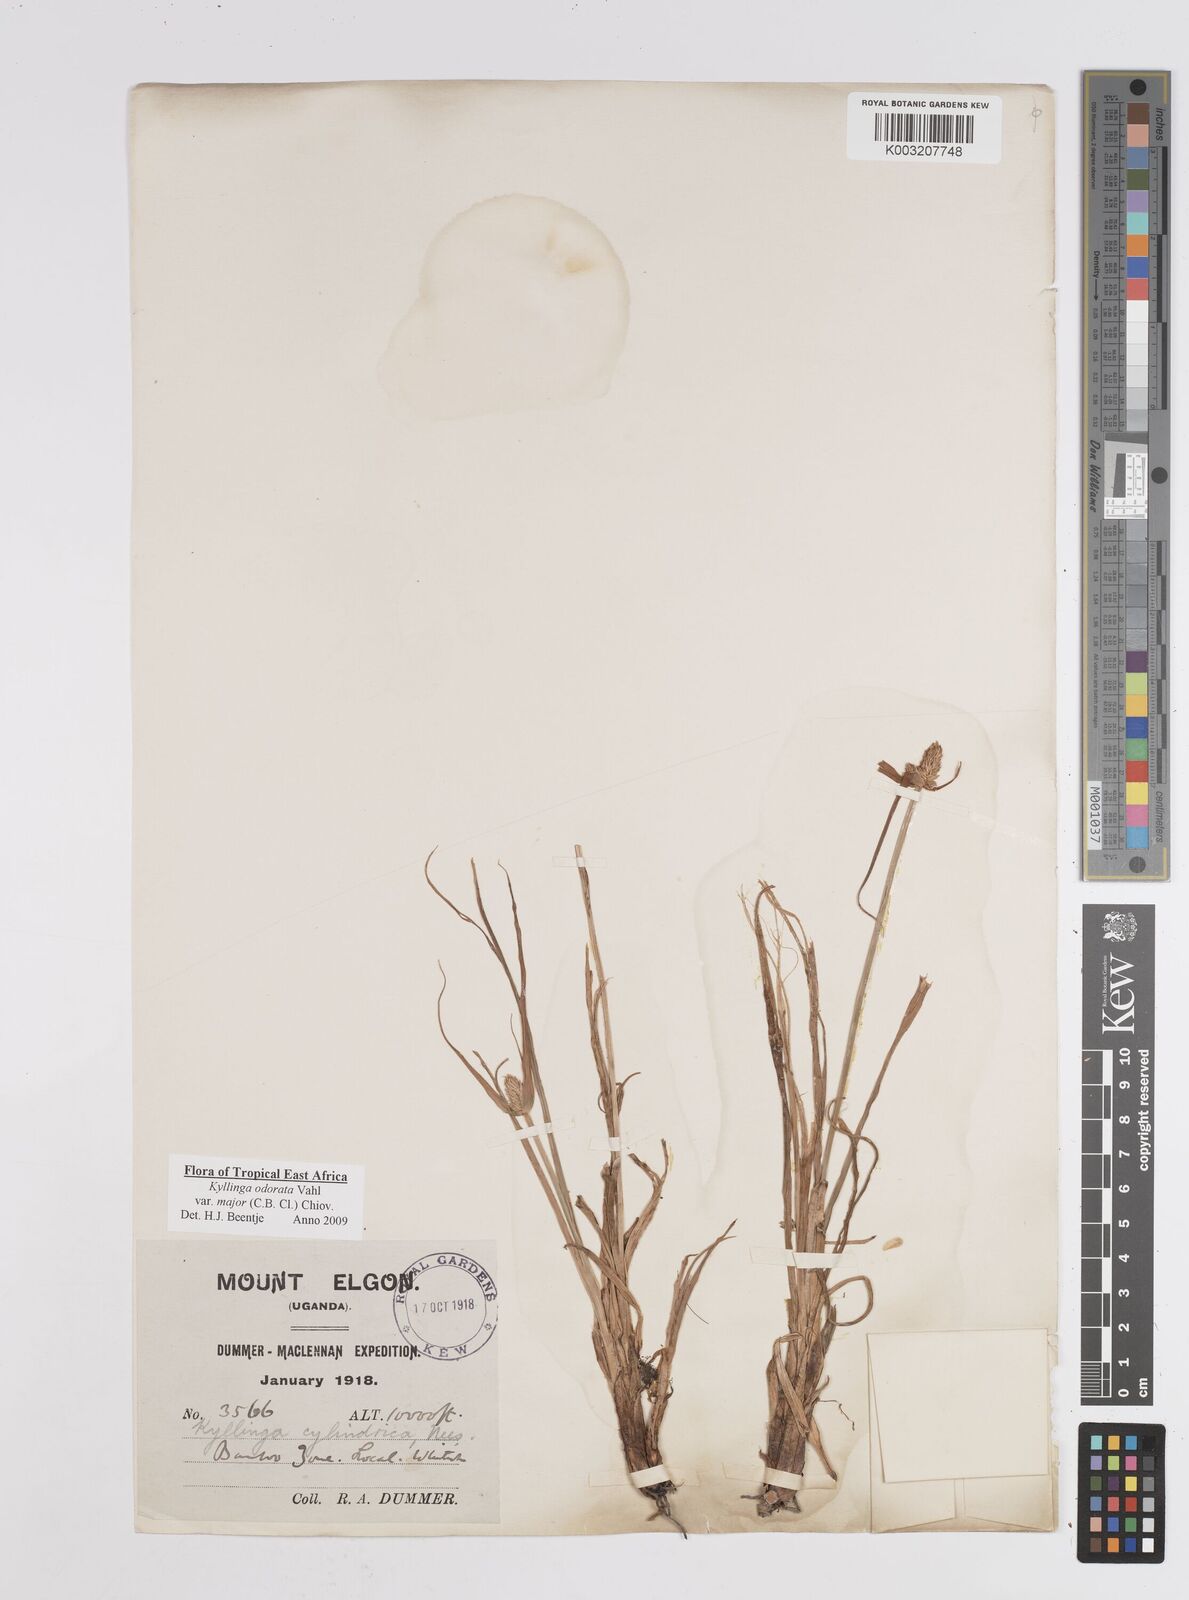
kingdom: Plantae
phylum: Tracheophyta
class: Liliopsida
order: Poales
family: Cyperaceae
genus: Cyperus
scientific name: Cyperus
